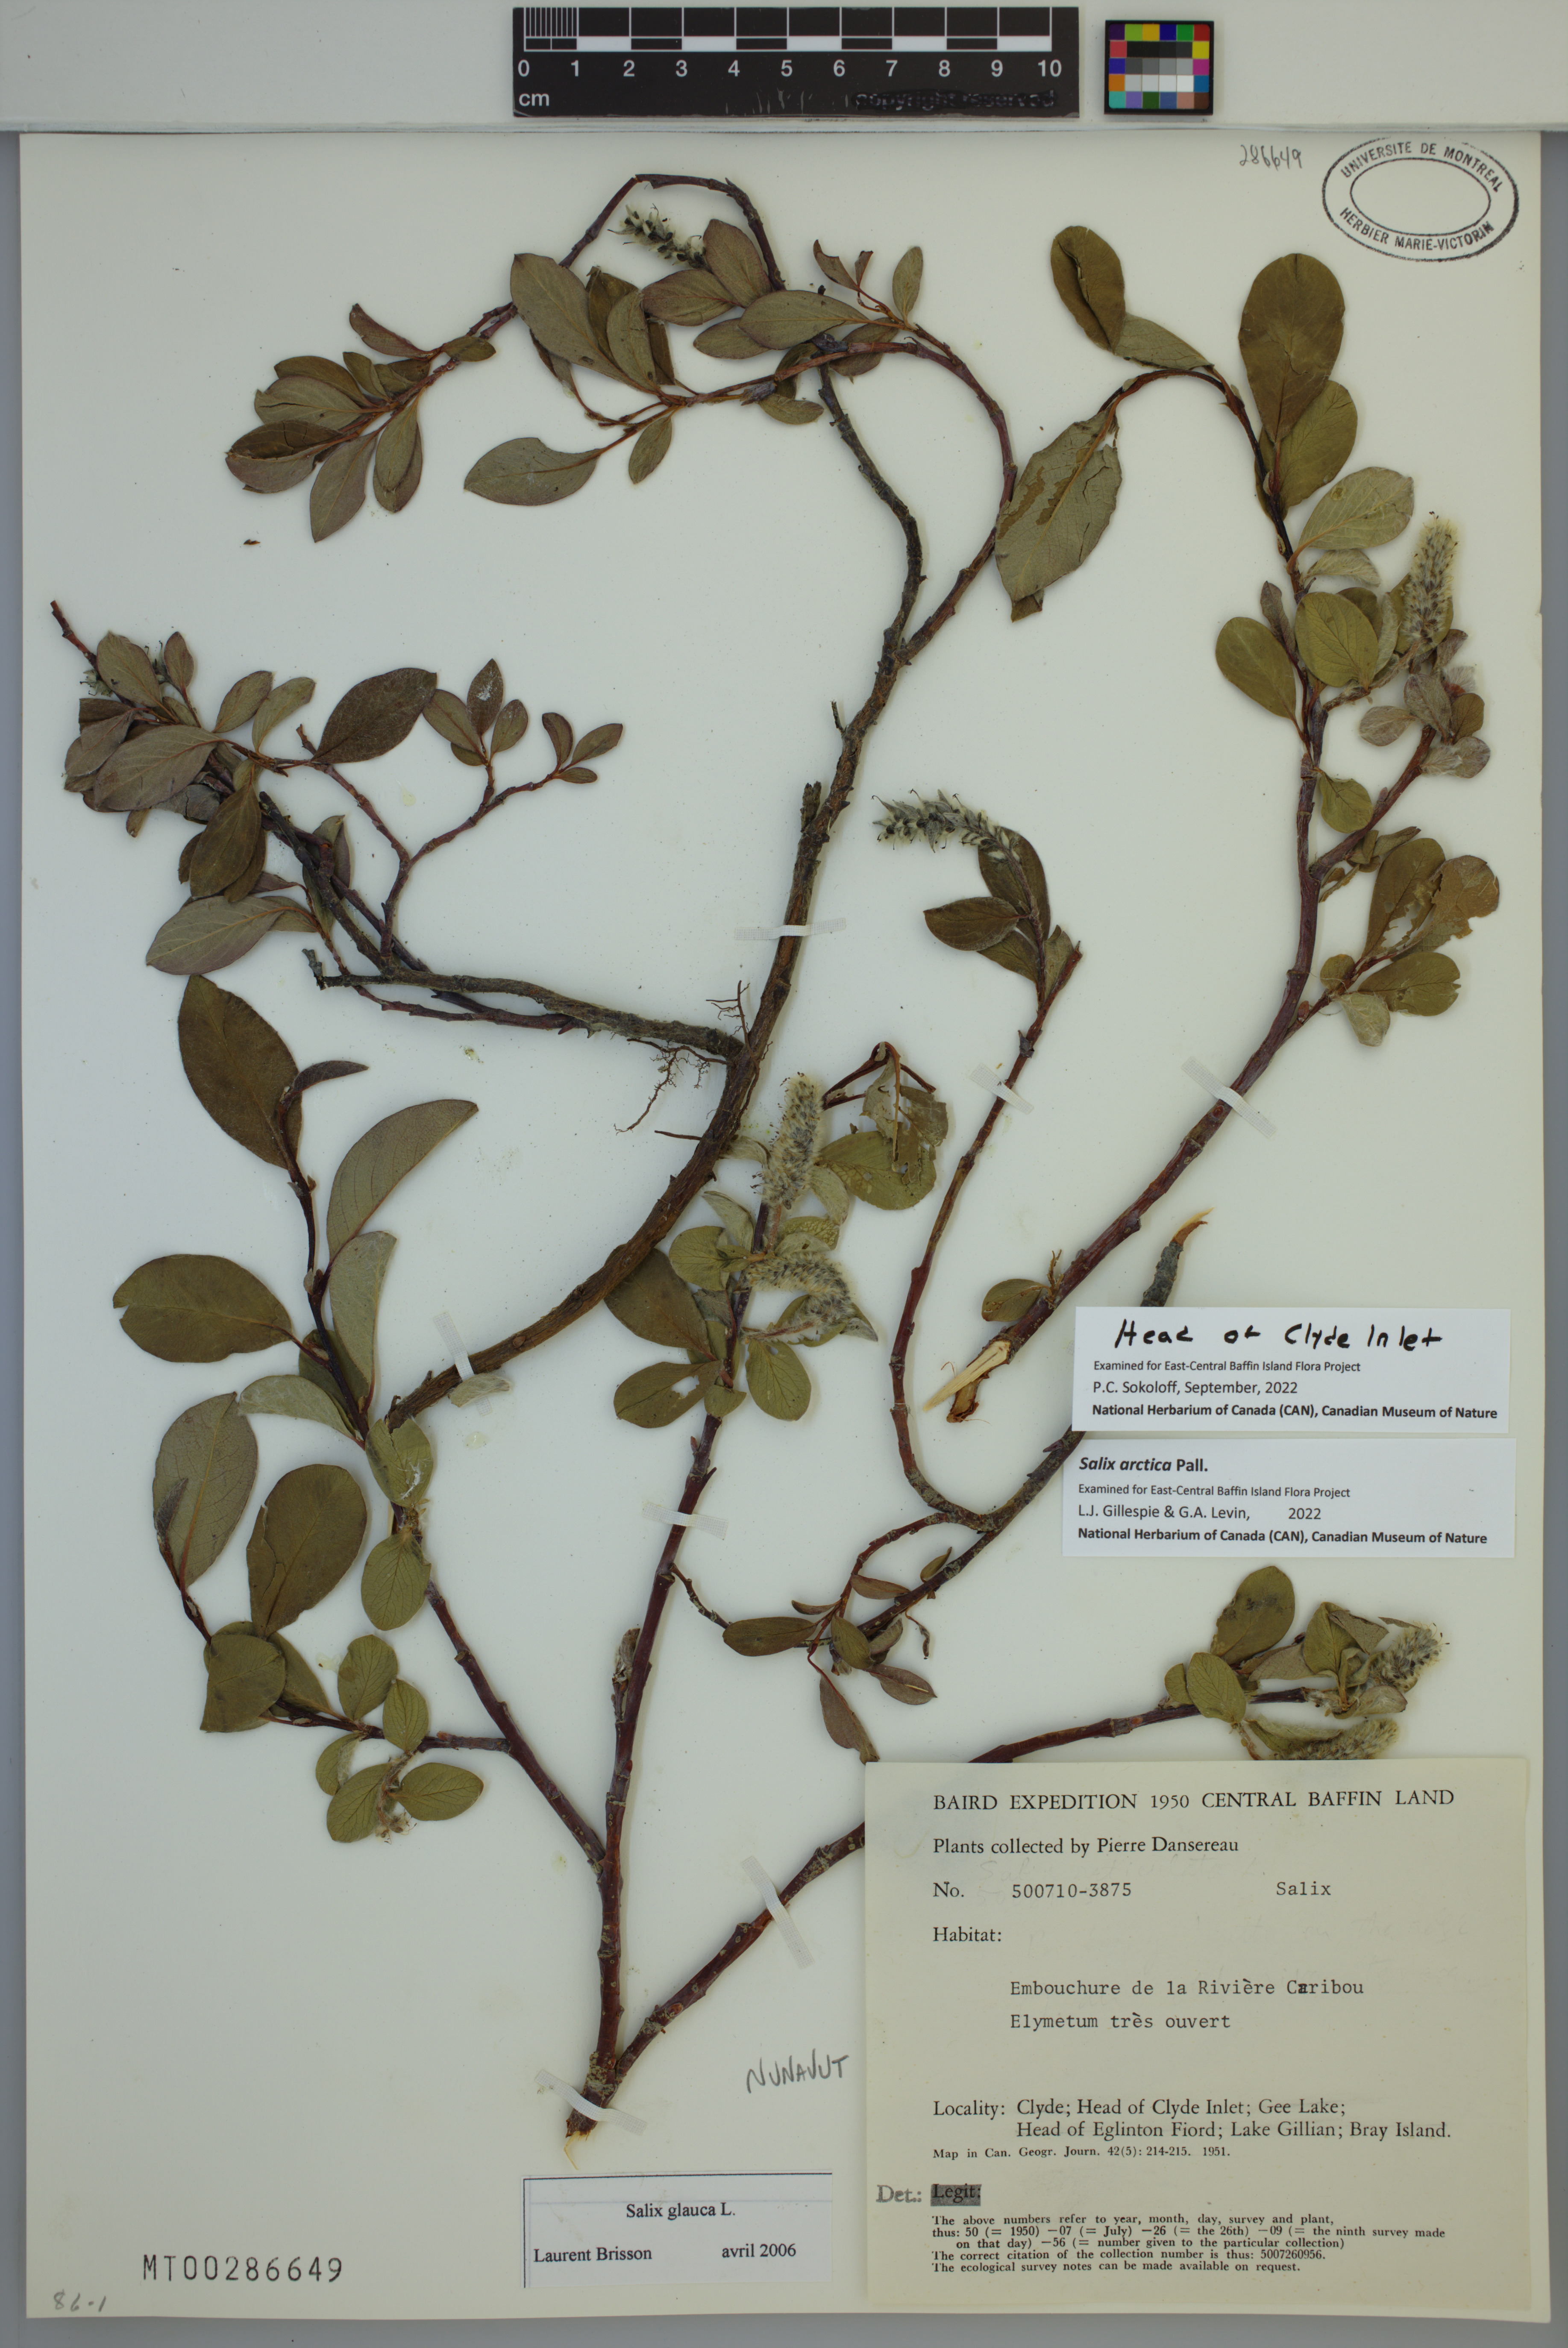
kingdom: Plantae
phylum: Tracheophyta
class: Magnoliopsida
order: Malpighiales
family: Salicaceae
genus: Salix
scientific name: Salix arctica
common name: Arctic willow
